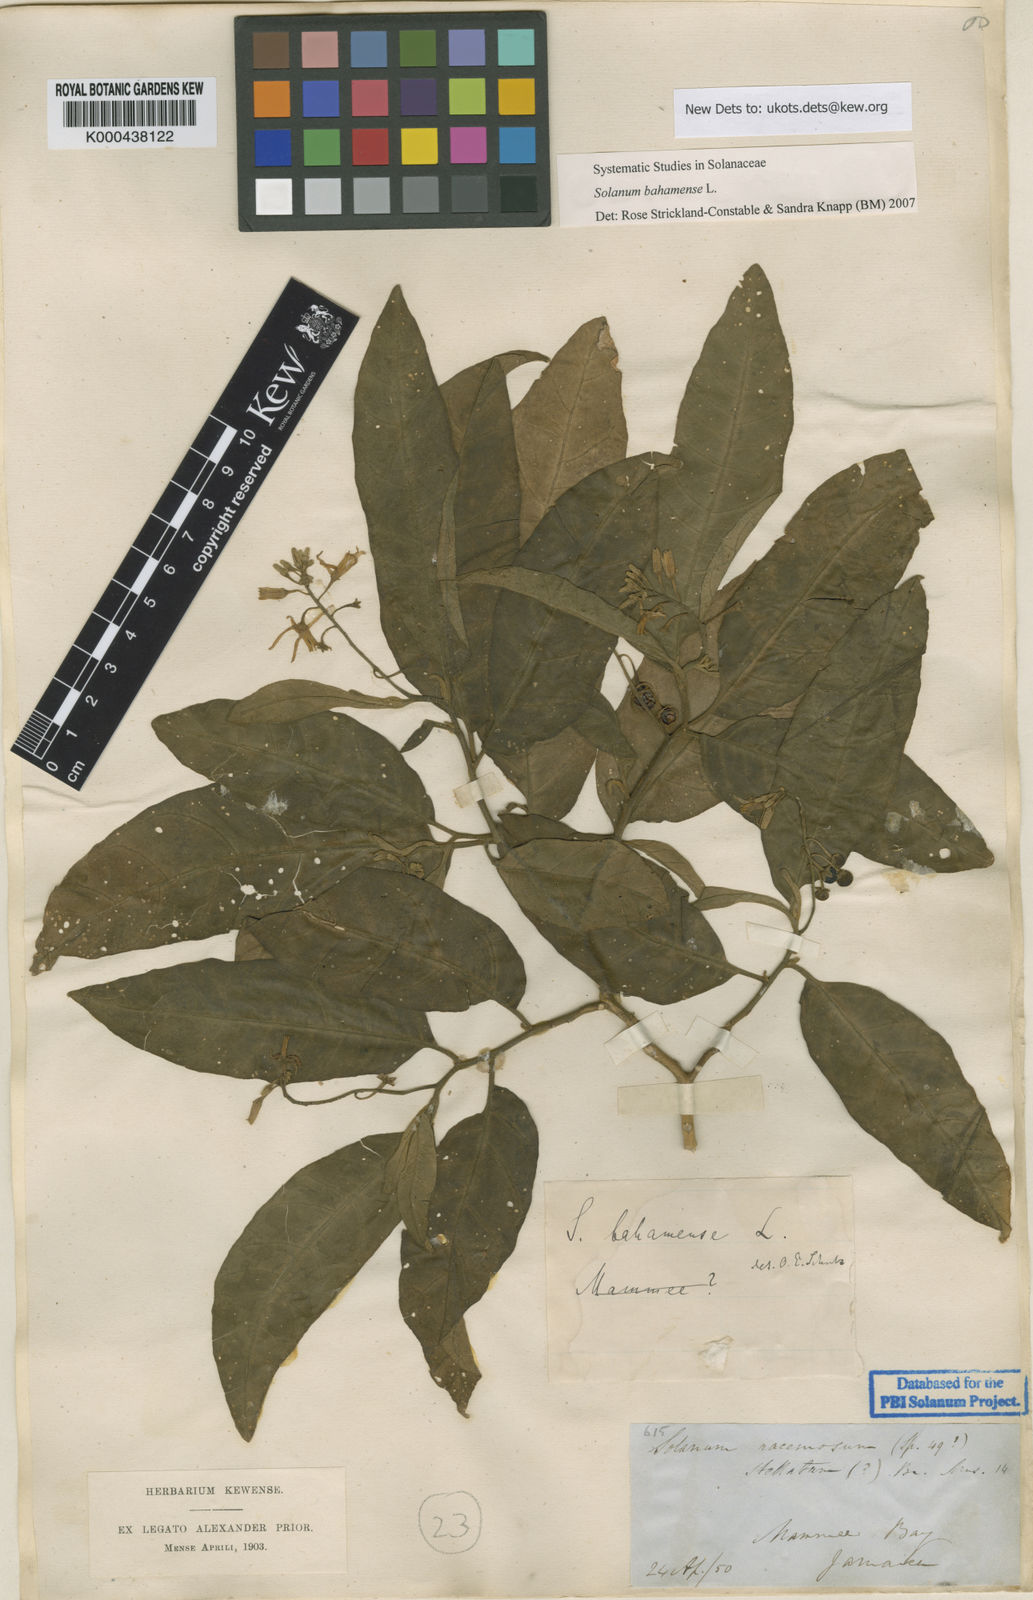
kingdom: Plantae
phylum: Tracheophyta
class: Magnoliopsida
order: Solanales
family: Solanaceae
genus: Solanum
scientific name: Solanum bahamense
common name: Canker-berry
